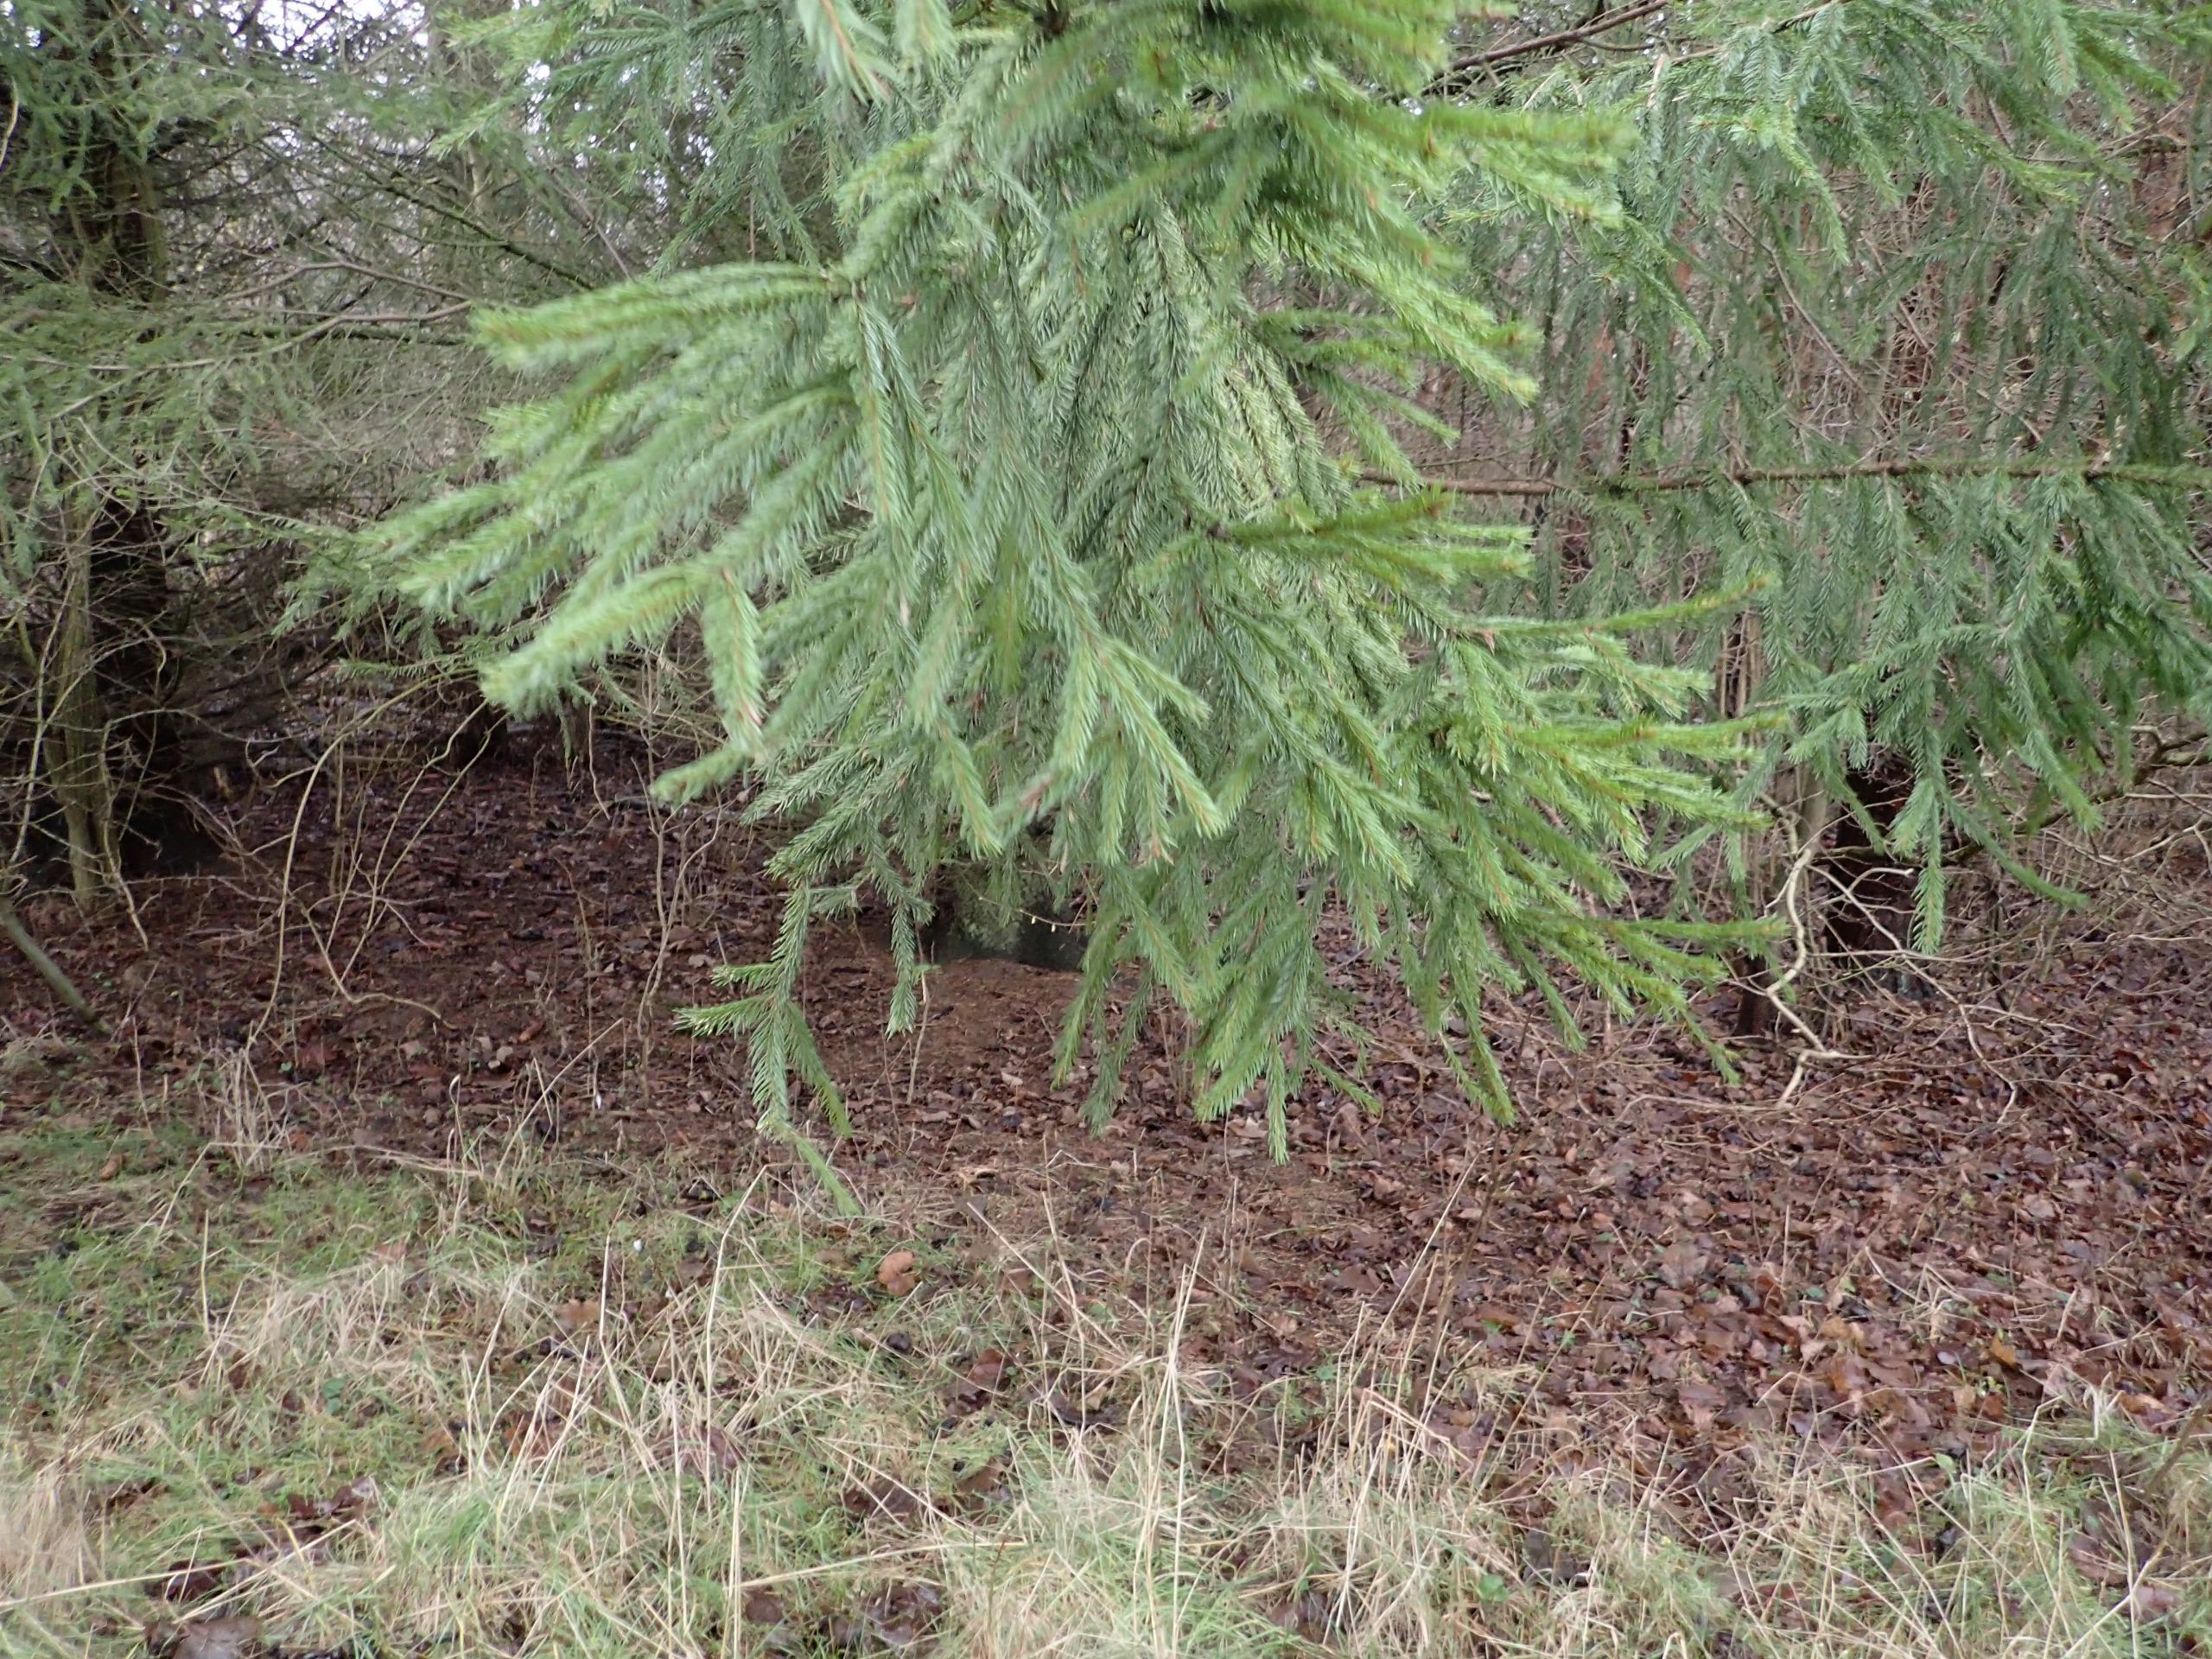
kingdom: Plantae
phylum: Tracheophyta
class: Pinopsida
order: Pinales
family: Pinaceae
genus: Picea
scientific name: Picea abies
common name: Rød-gran
